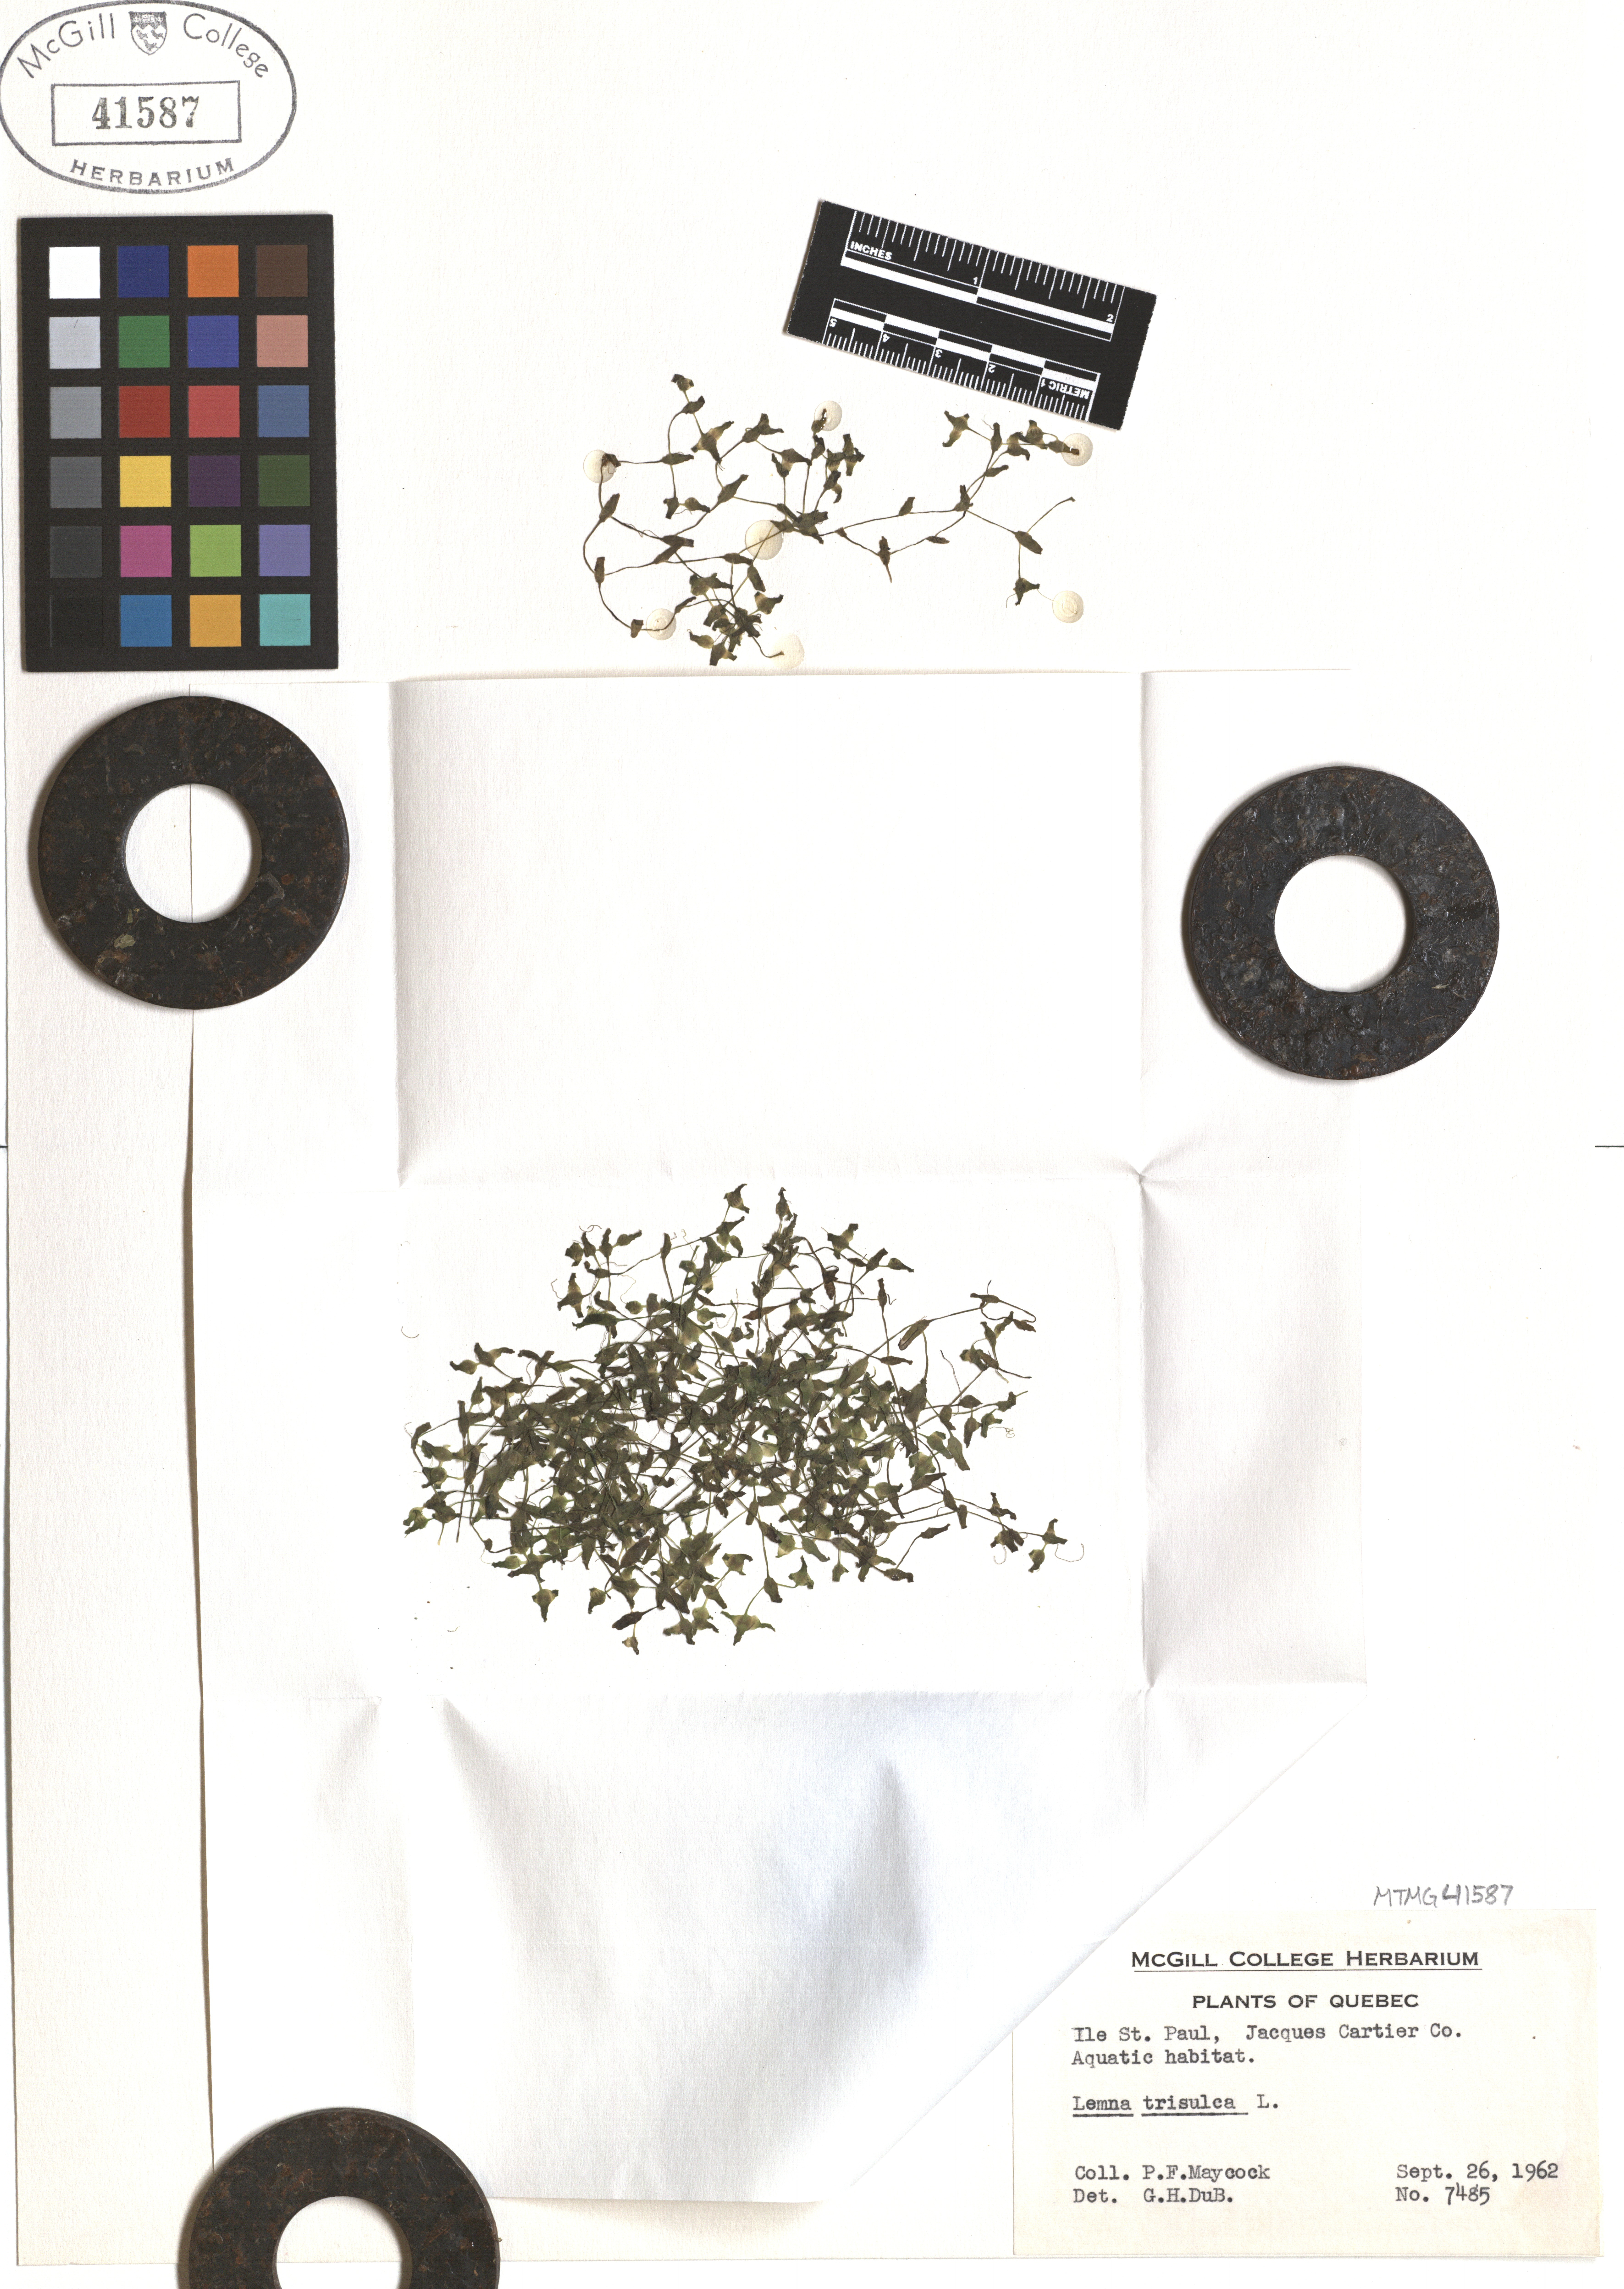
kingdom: Plantae
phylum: Tracheophyta
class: Liliopsida
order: Alismatales
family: Araceae
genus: Lemna
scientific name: Lemna trisulca
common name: Ivy-leaved duckweed
